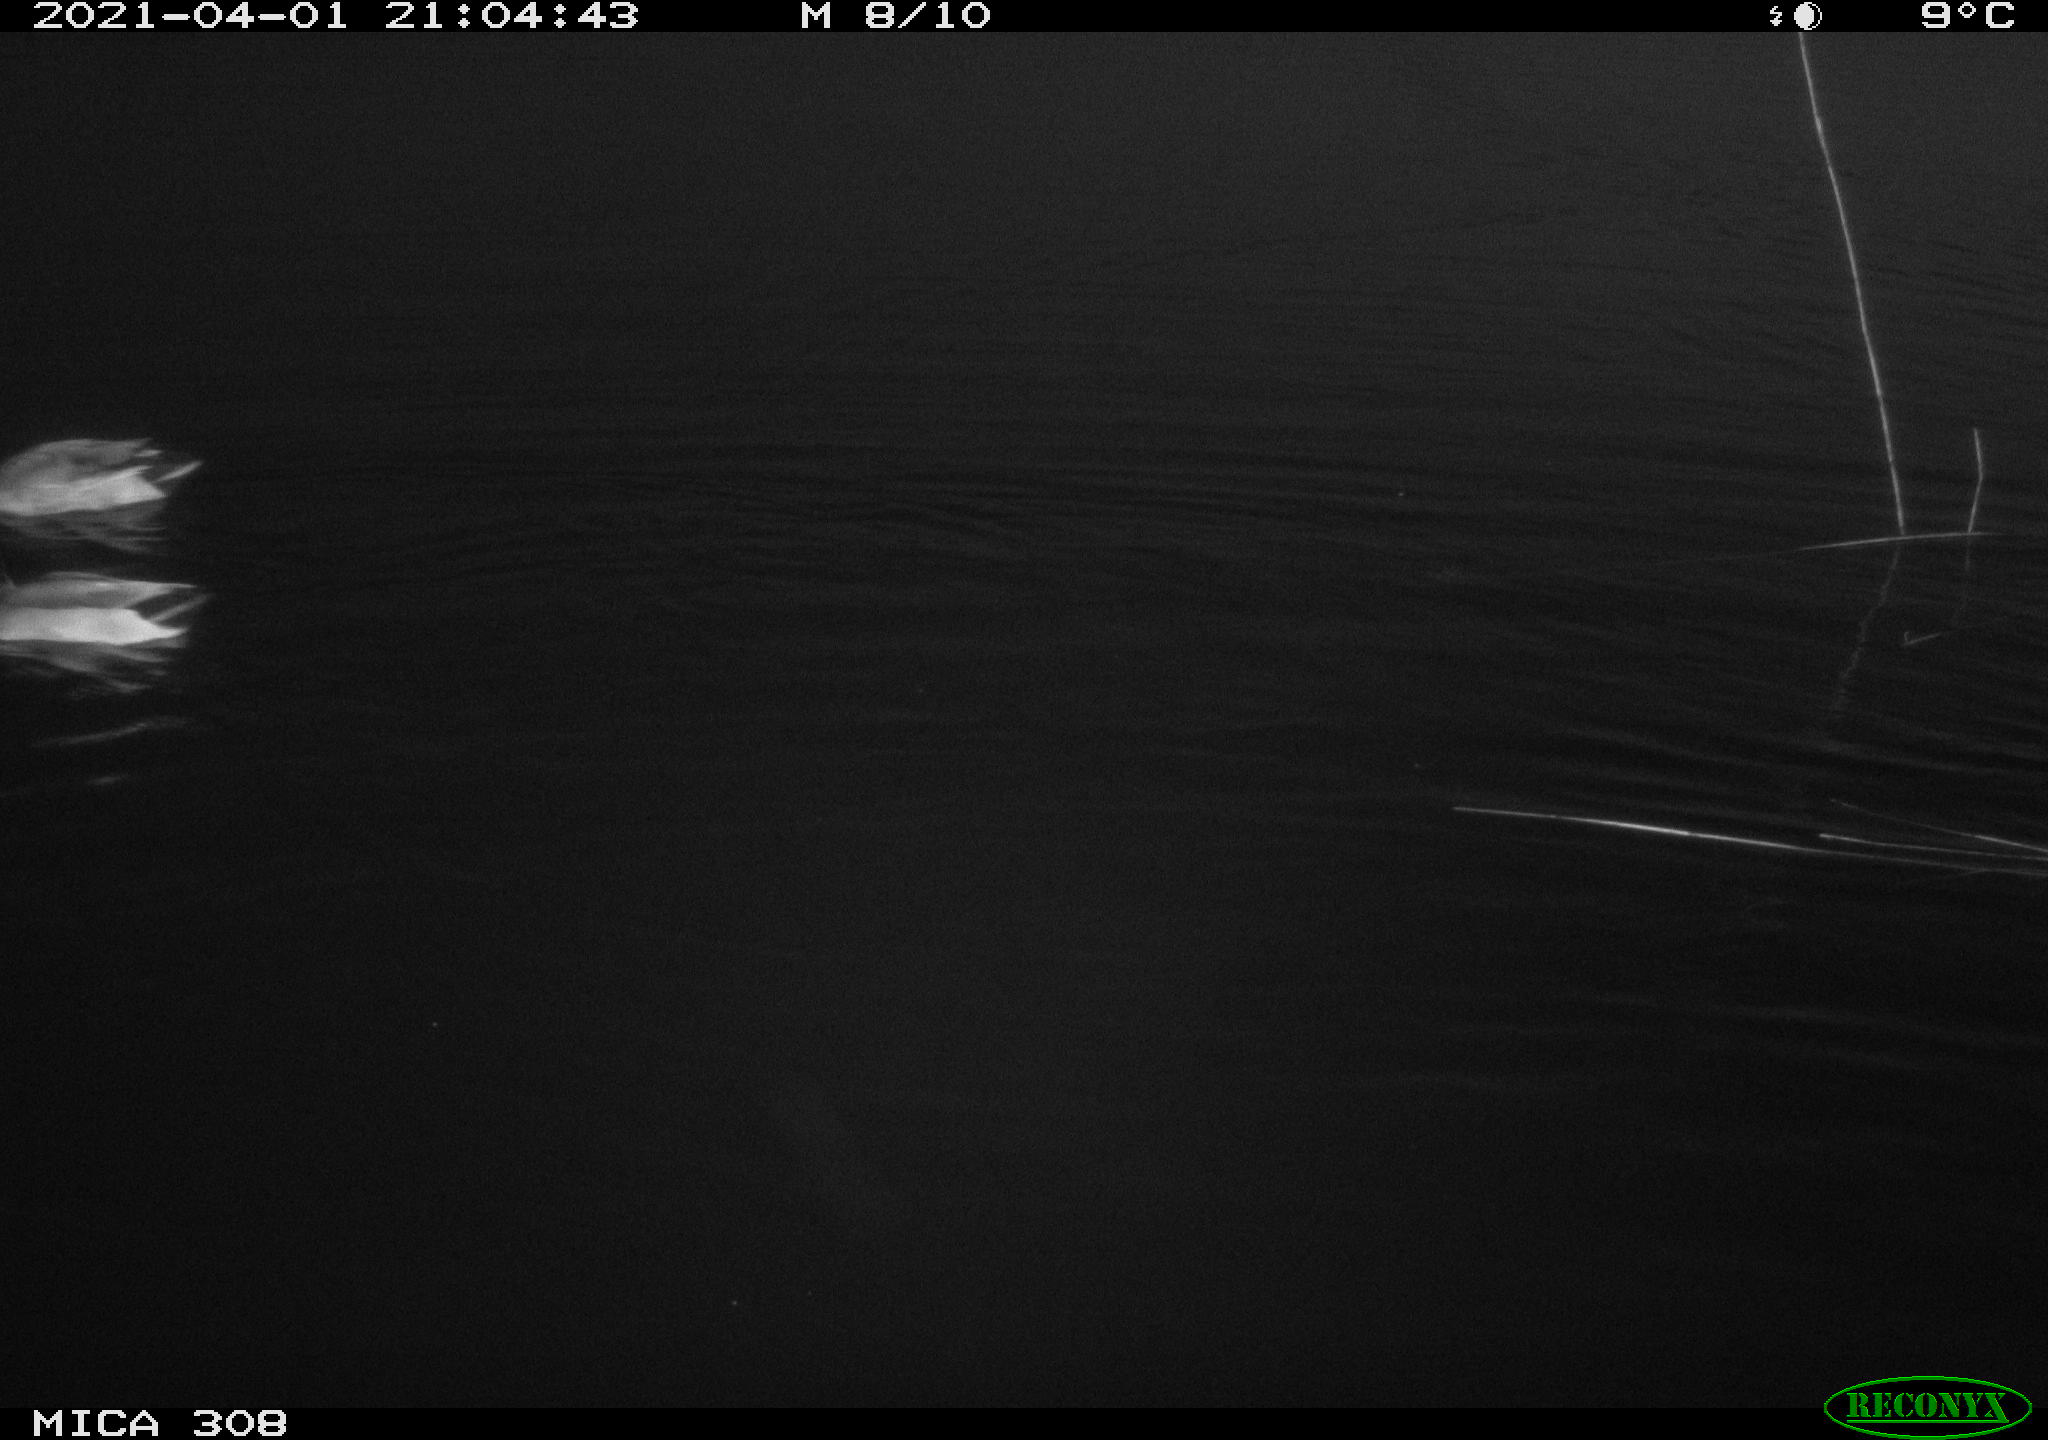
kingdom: Animalia
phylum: Chordata
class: Aves
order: Anseriformes
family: Anatidae
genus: Anas
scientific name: Anas platyrhynchos
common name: Mallard
